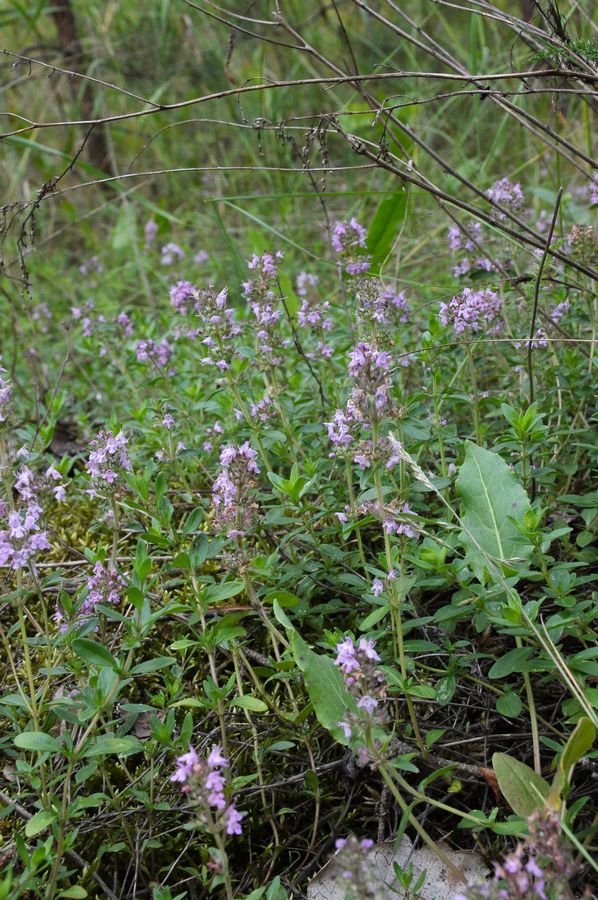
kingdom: Plantae
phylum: Tracheophyta
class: Magnoliopsida
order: Lamiales
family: Lamiaceae
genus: Thymus
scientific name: Thymus odoratissimus
